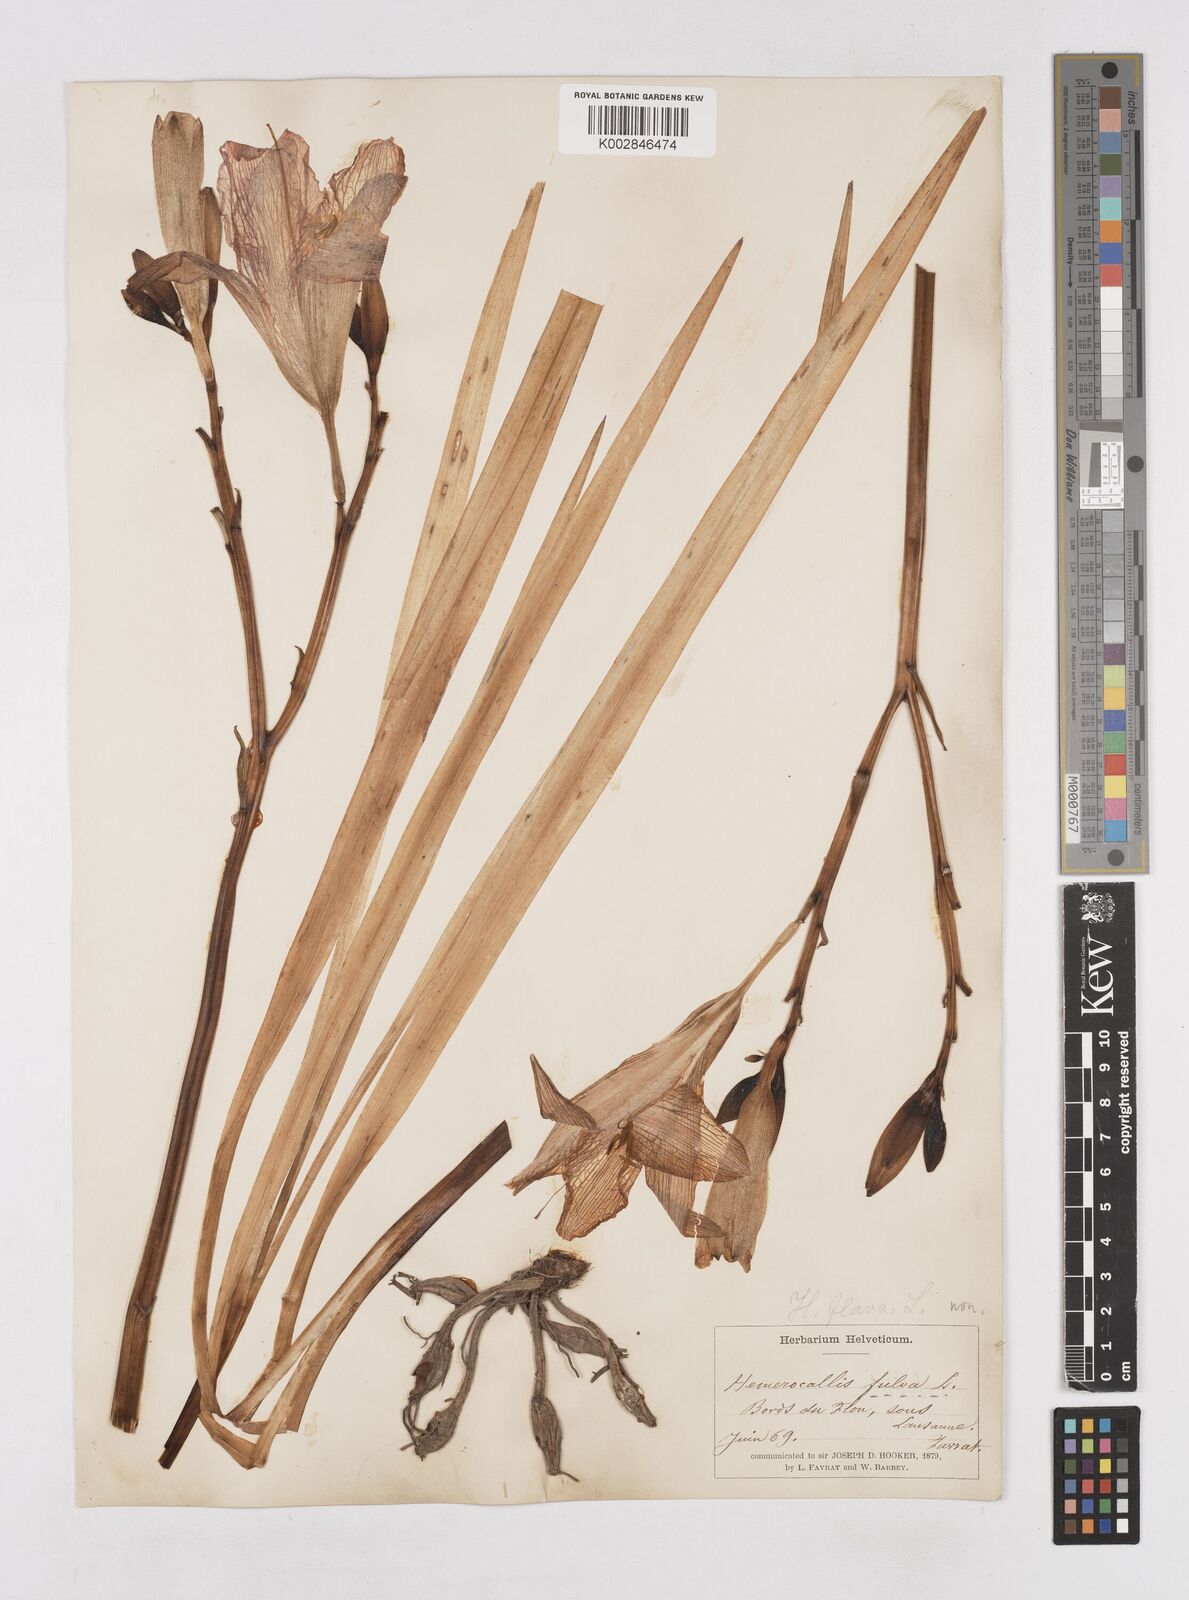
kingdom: Plantae
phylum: Tracheophyta
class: Liliopsida
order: Asparagales
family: Asphodelaceae
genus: Hemerocallis
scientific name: Hemerocallis fulva
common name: Orange day-lily
